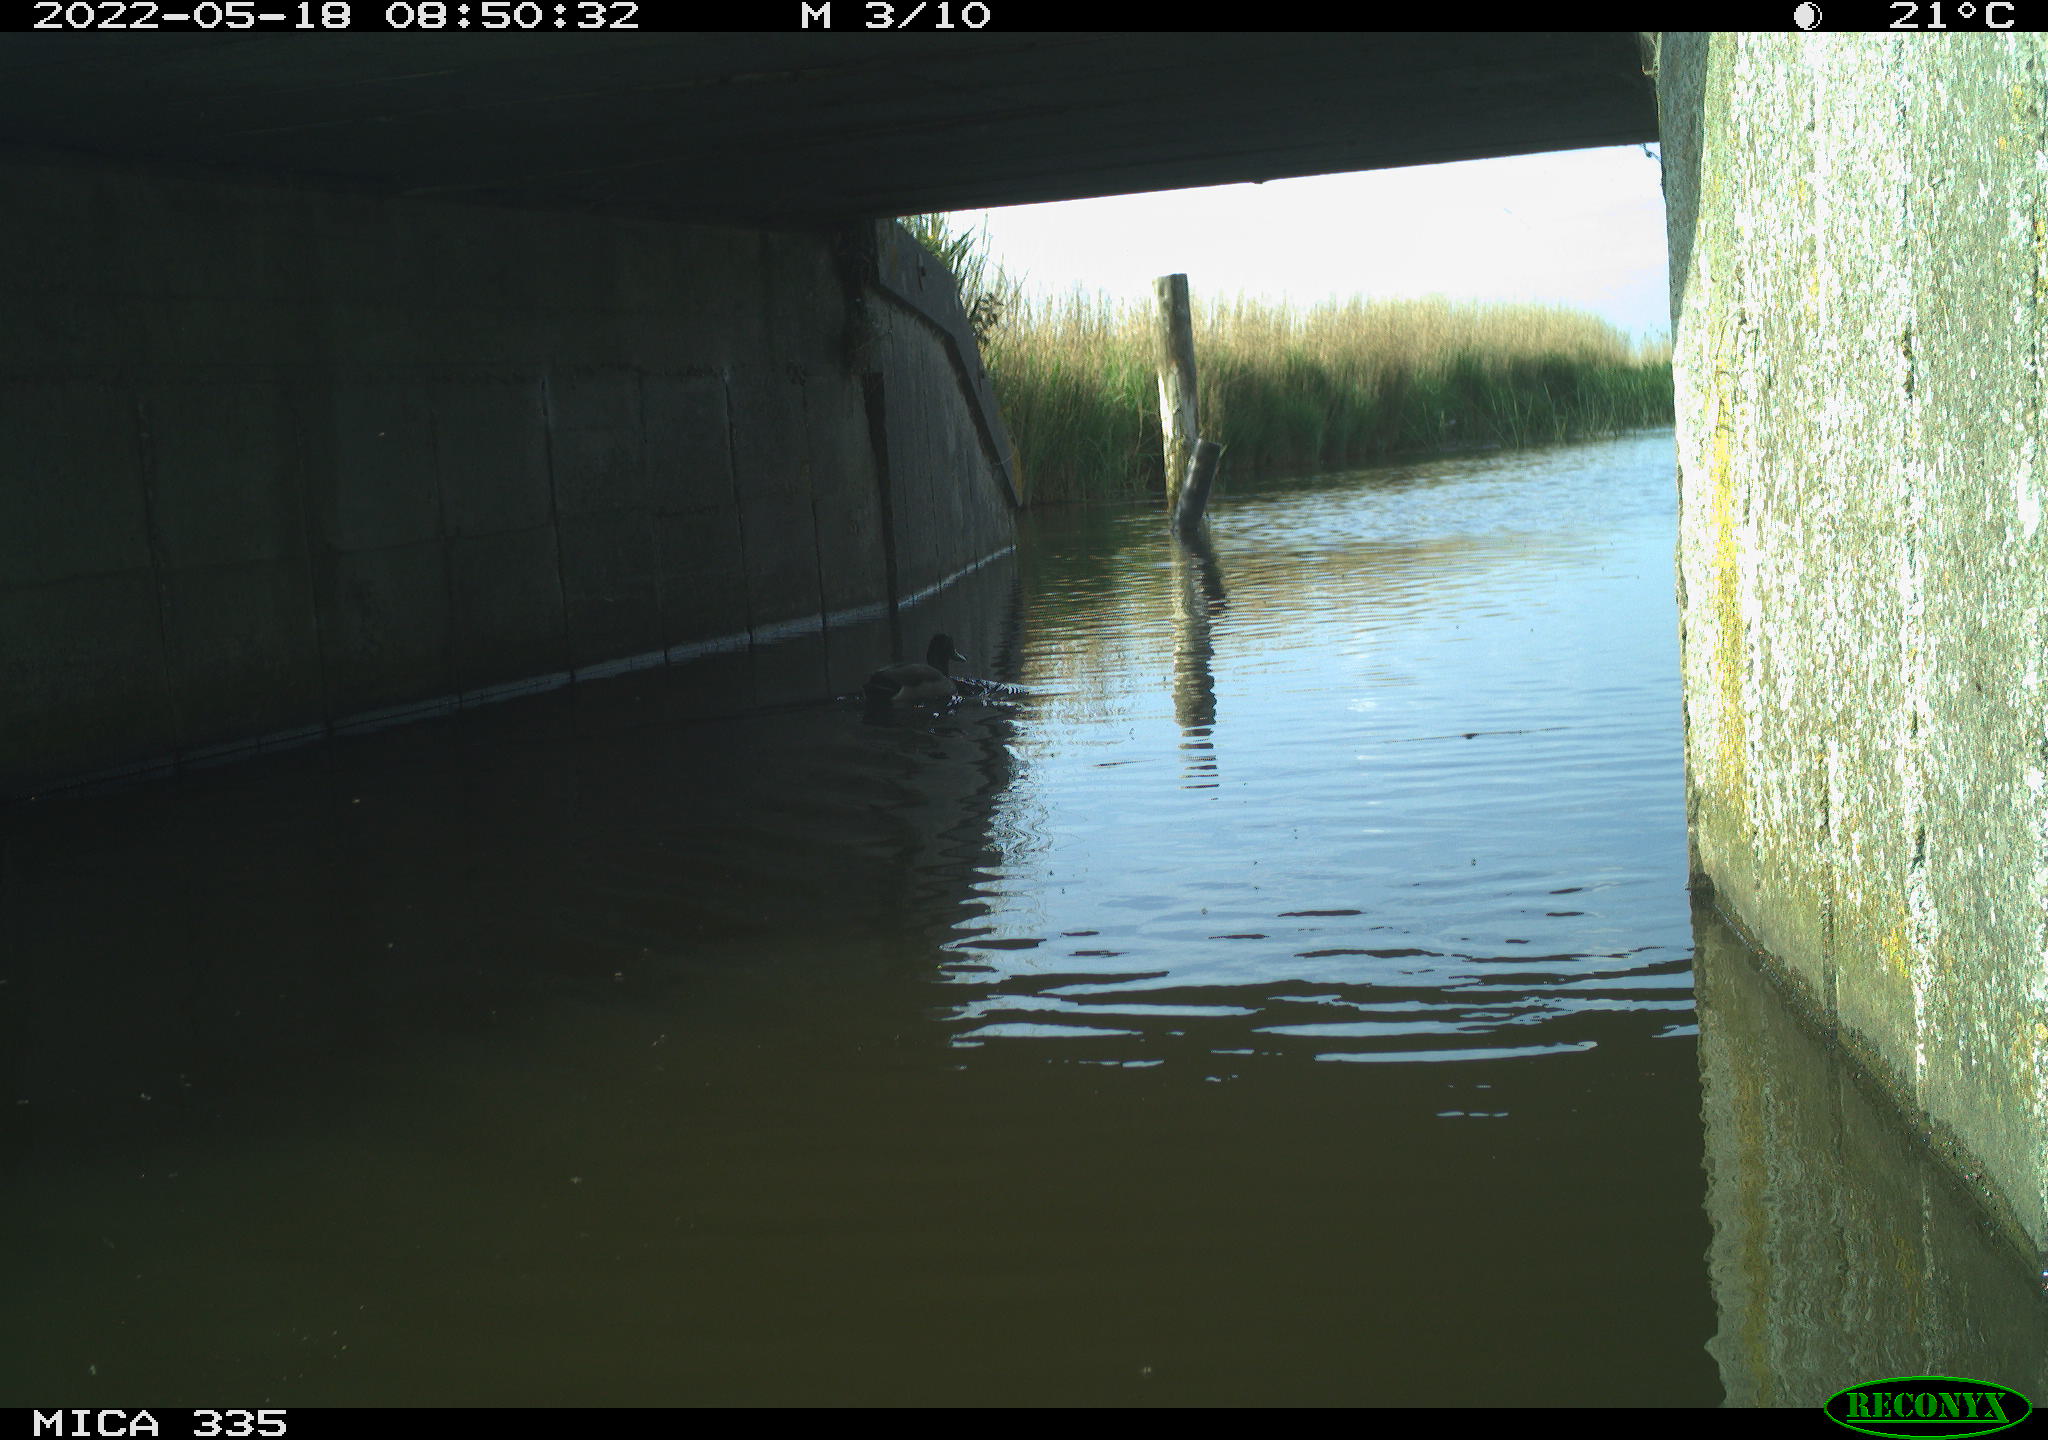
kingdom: Animalia
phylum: Chordata
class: Aves
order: Anseriformes
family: Anatidae
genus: Anas
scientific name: Anas platyrhynchos
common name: Mallard
